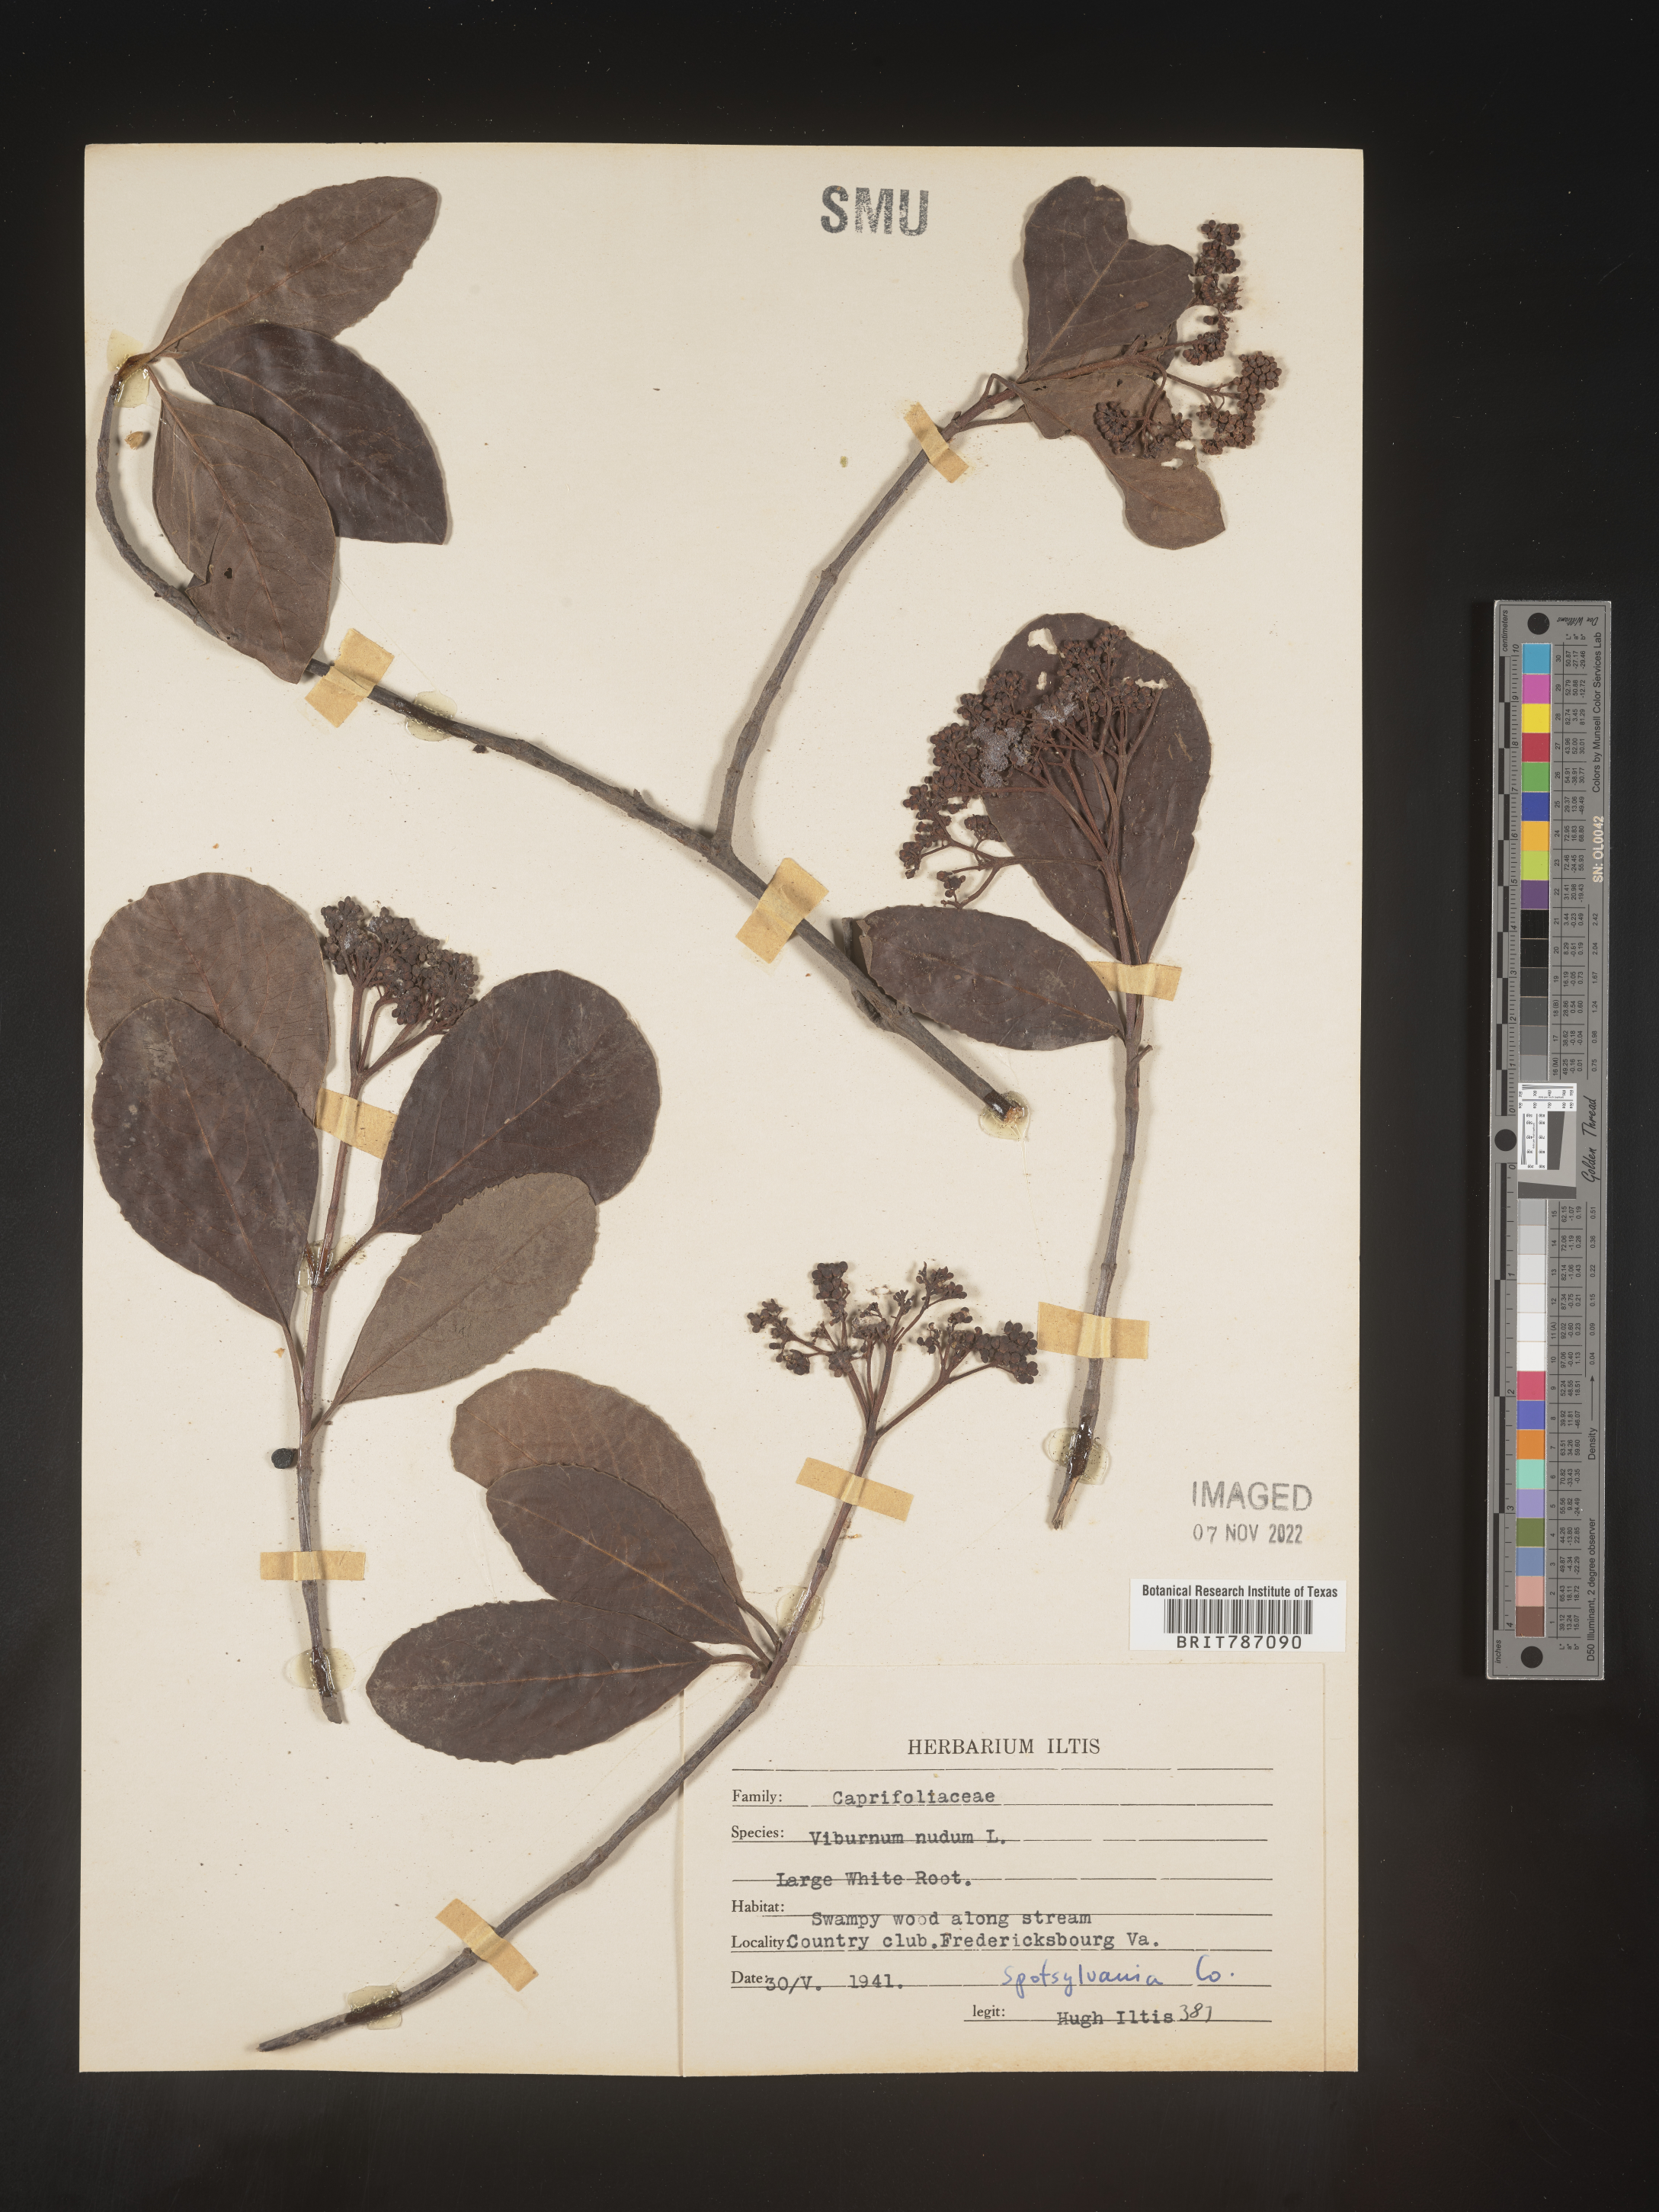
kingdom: Plantae
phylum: Tracheophyta
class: Magnoliopsida
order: Dipsacales
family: Viburnaceae
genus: Viburnum
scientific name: Viburnum nudum
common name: Possum haw
